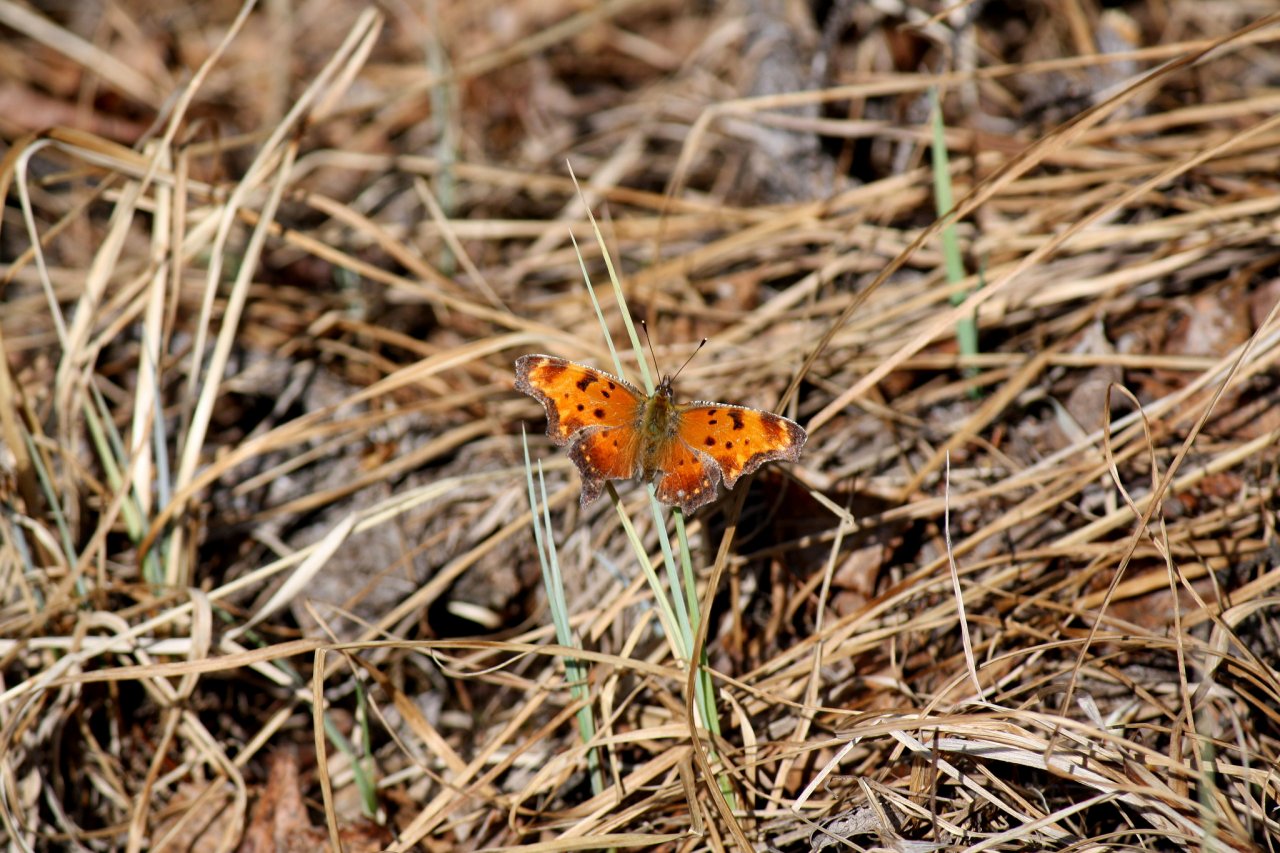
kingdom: Animalia
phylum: Arthropoda
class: Insecta
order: Lepidoptera
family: Nymphalidae
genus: Polygonia
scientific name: Polygonia progne
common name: Gray Comma
